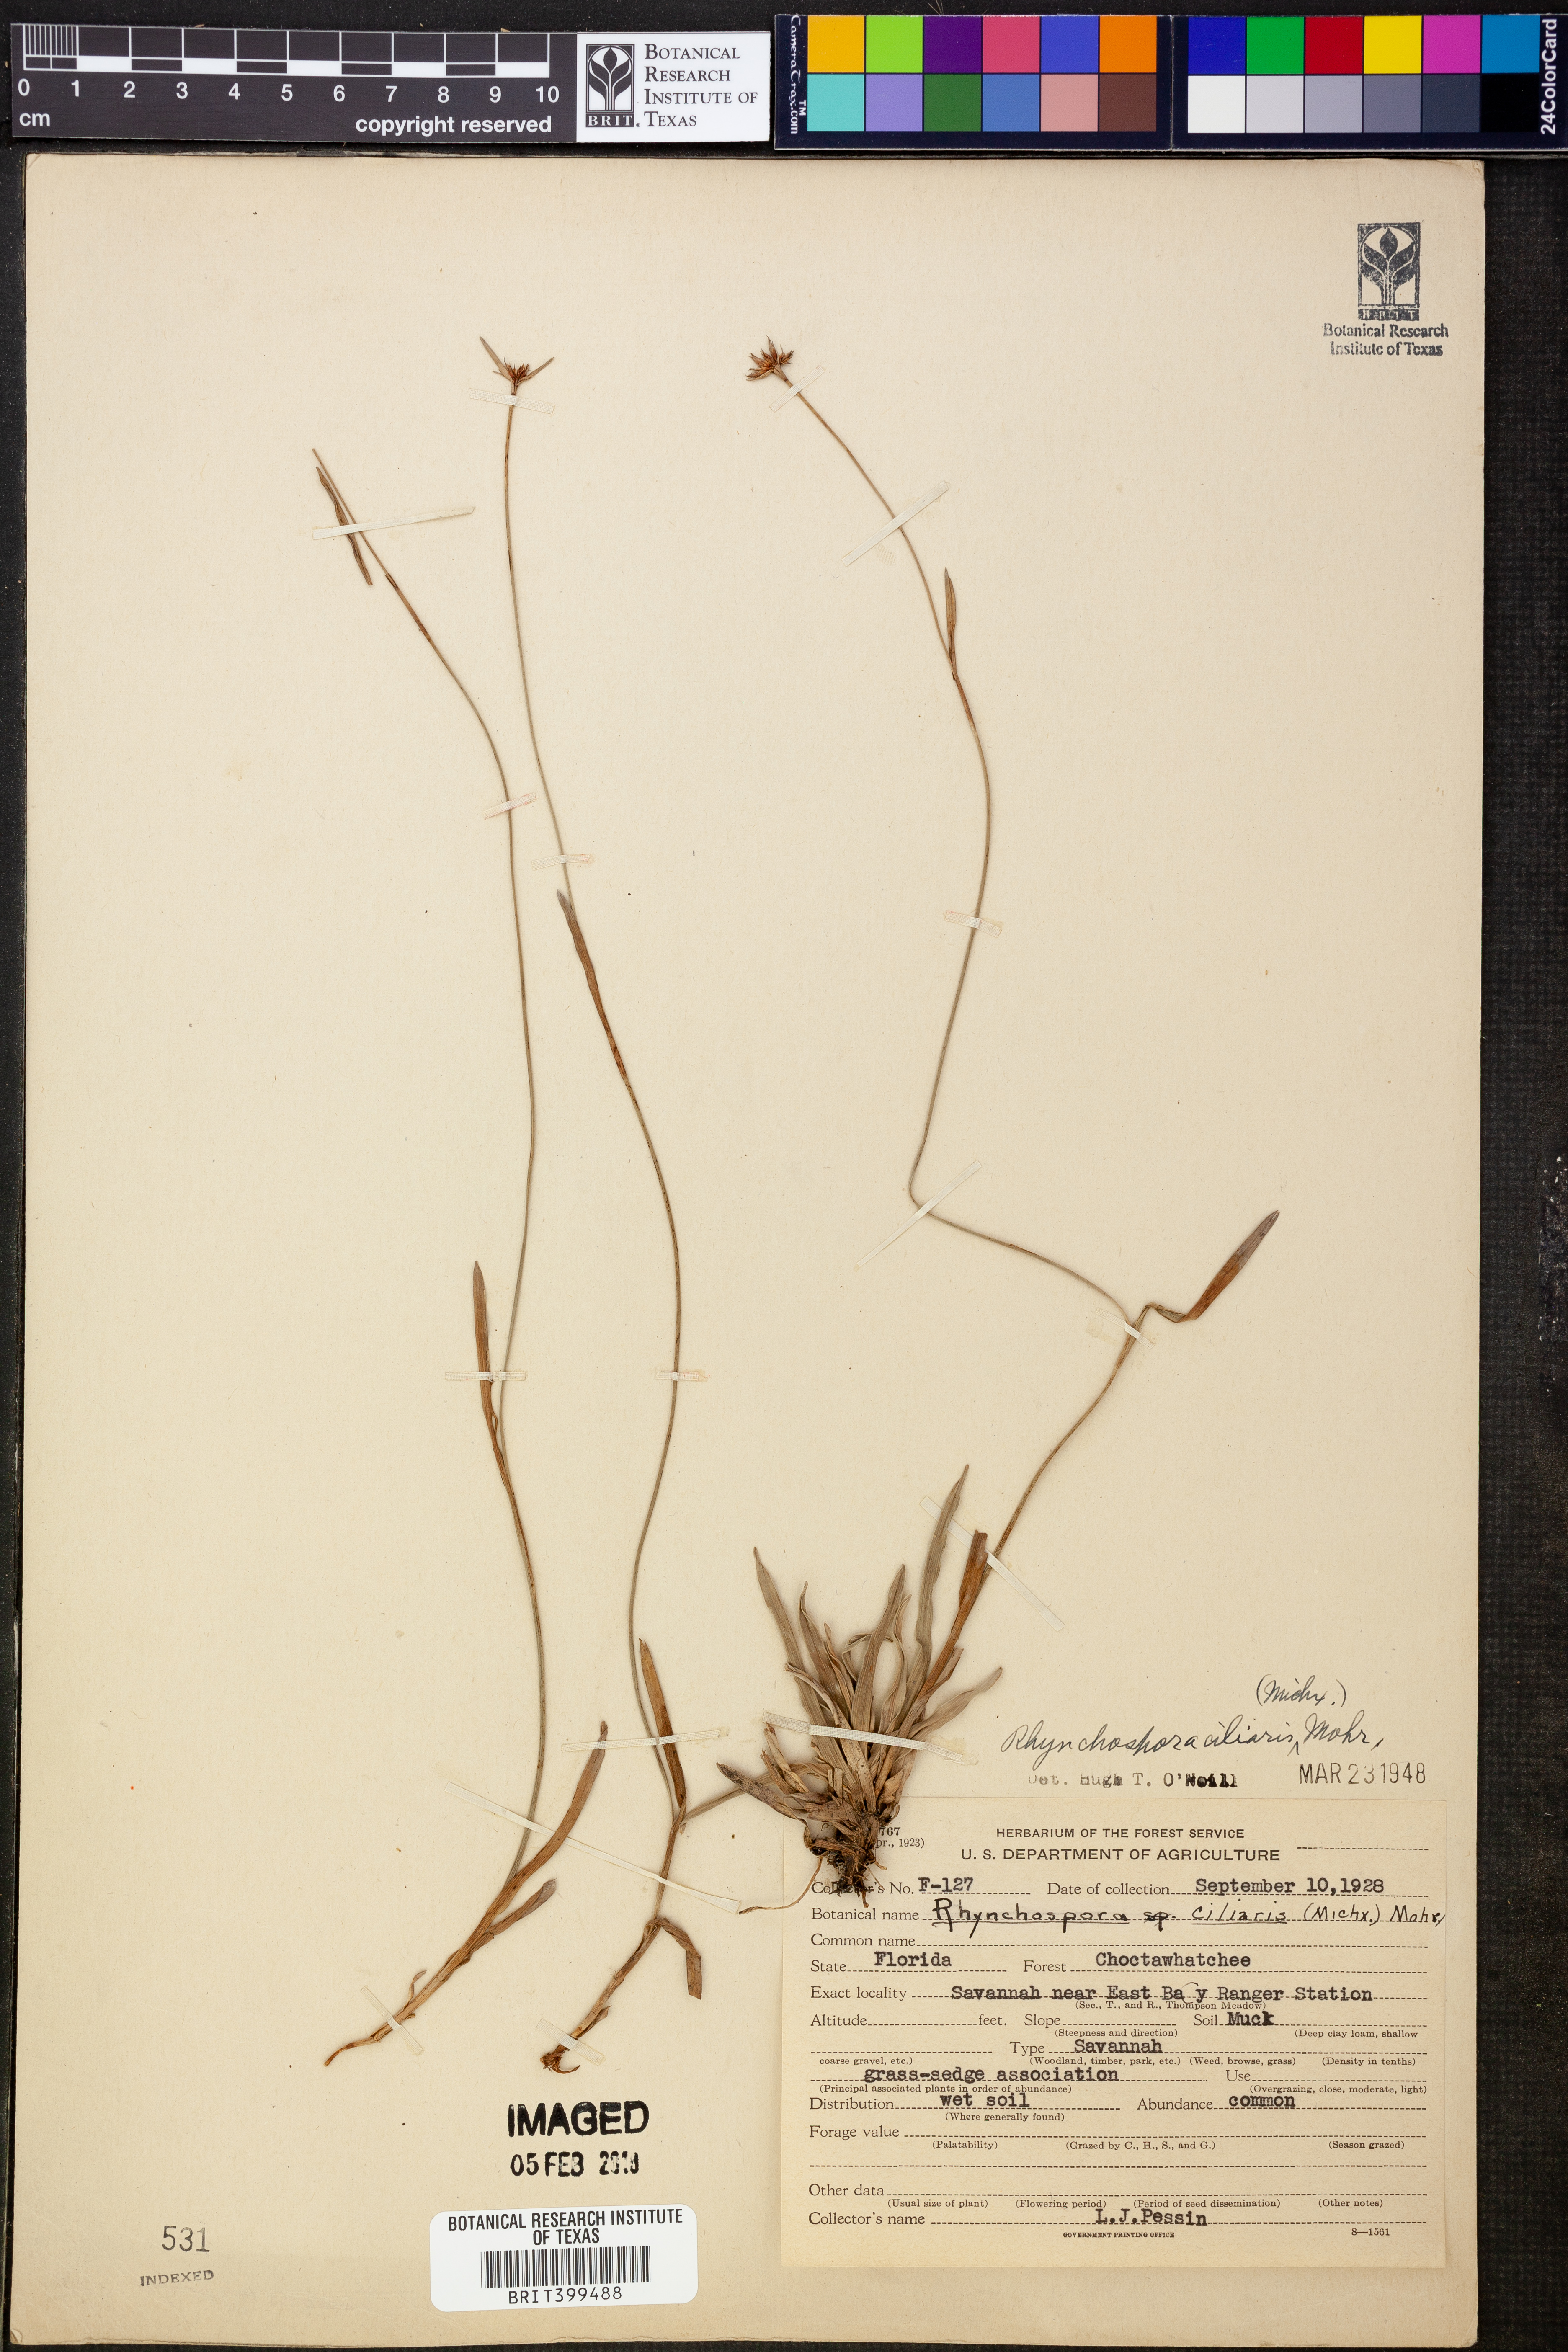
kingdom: Plantae
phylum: Tracheophyta
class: Liliopsida
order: Poales
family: Cyperaceae
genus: Rhynchospora
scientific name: Rhynchospora ciliaris
